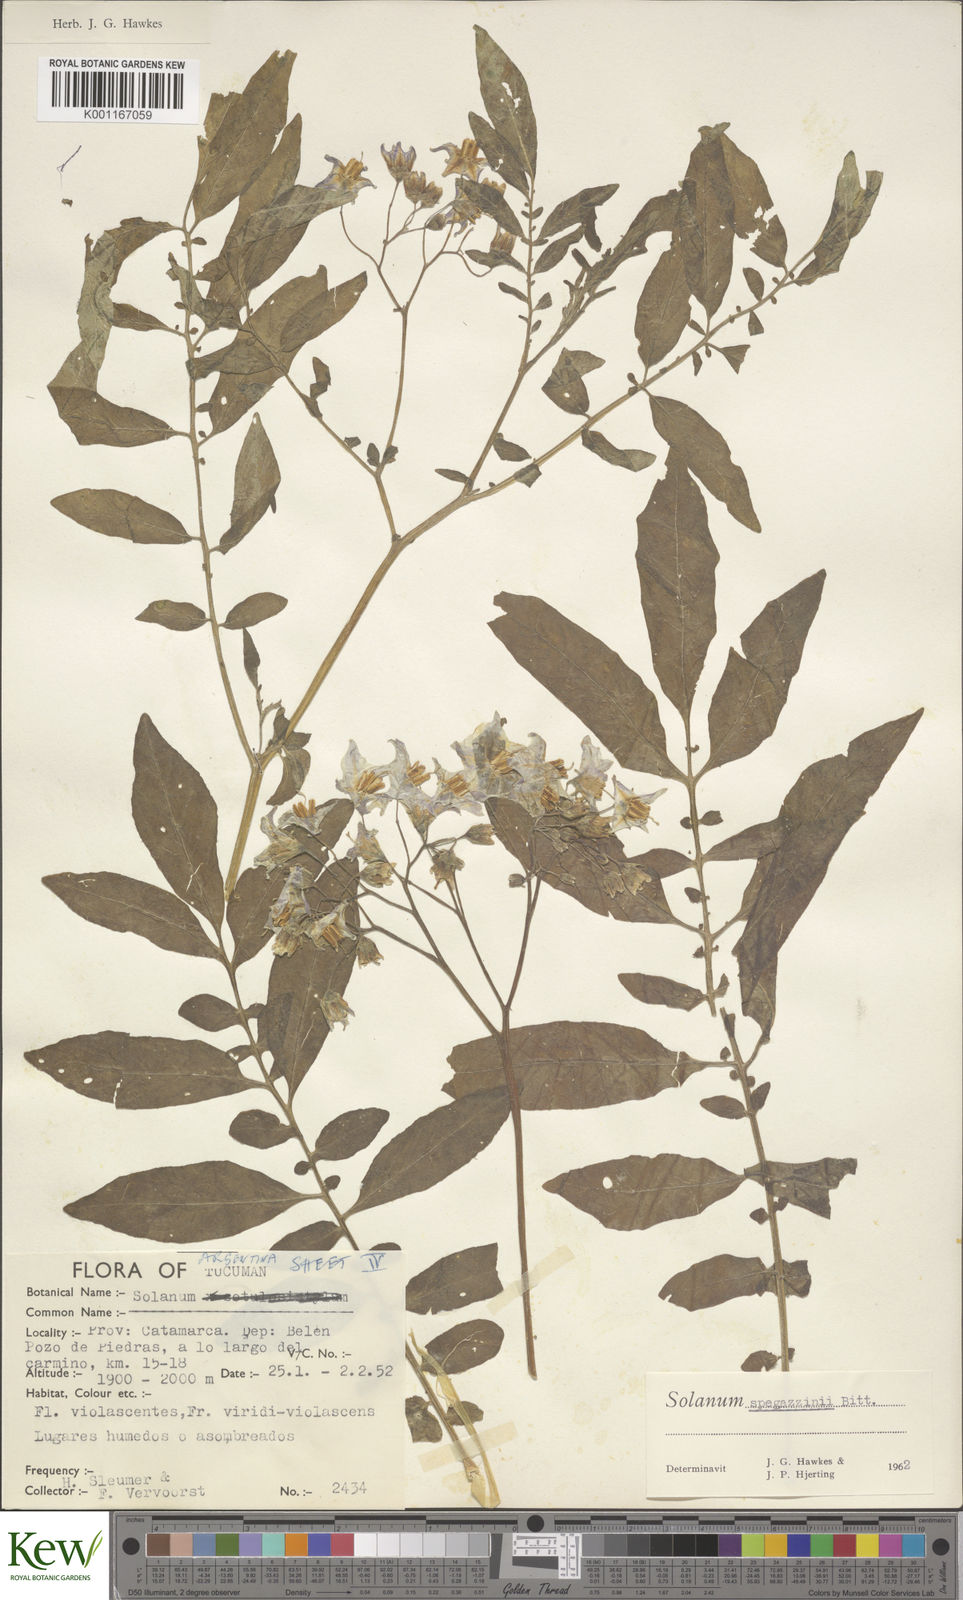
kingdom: Plantae
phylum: Tracheophyta
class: Magnoliopsida
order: Solanales
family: Solanaceae
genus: Solanum
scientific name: Solanum brevicaule
